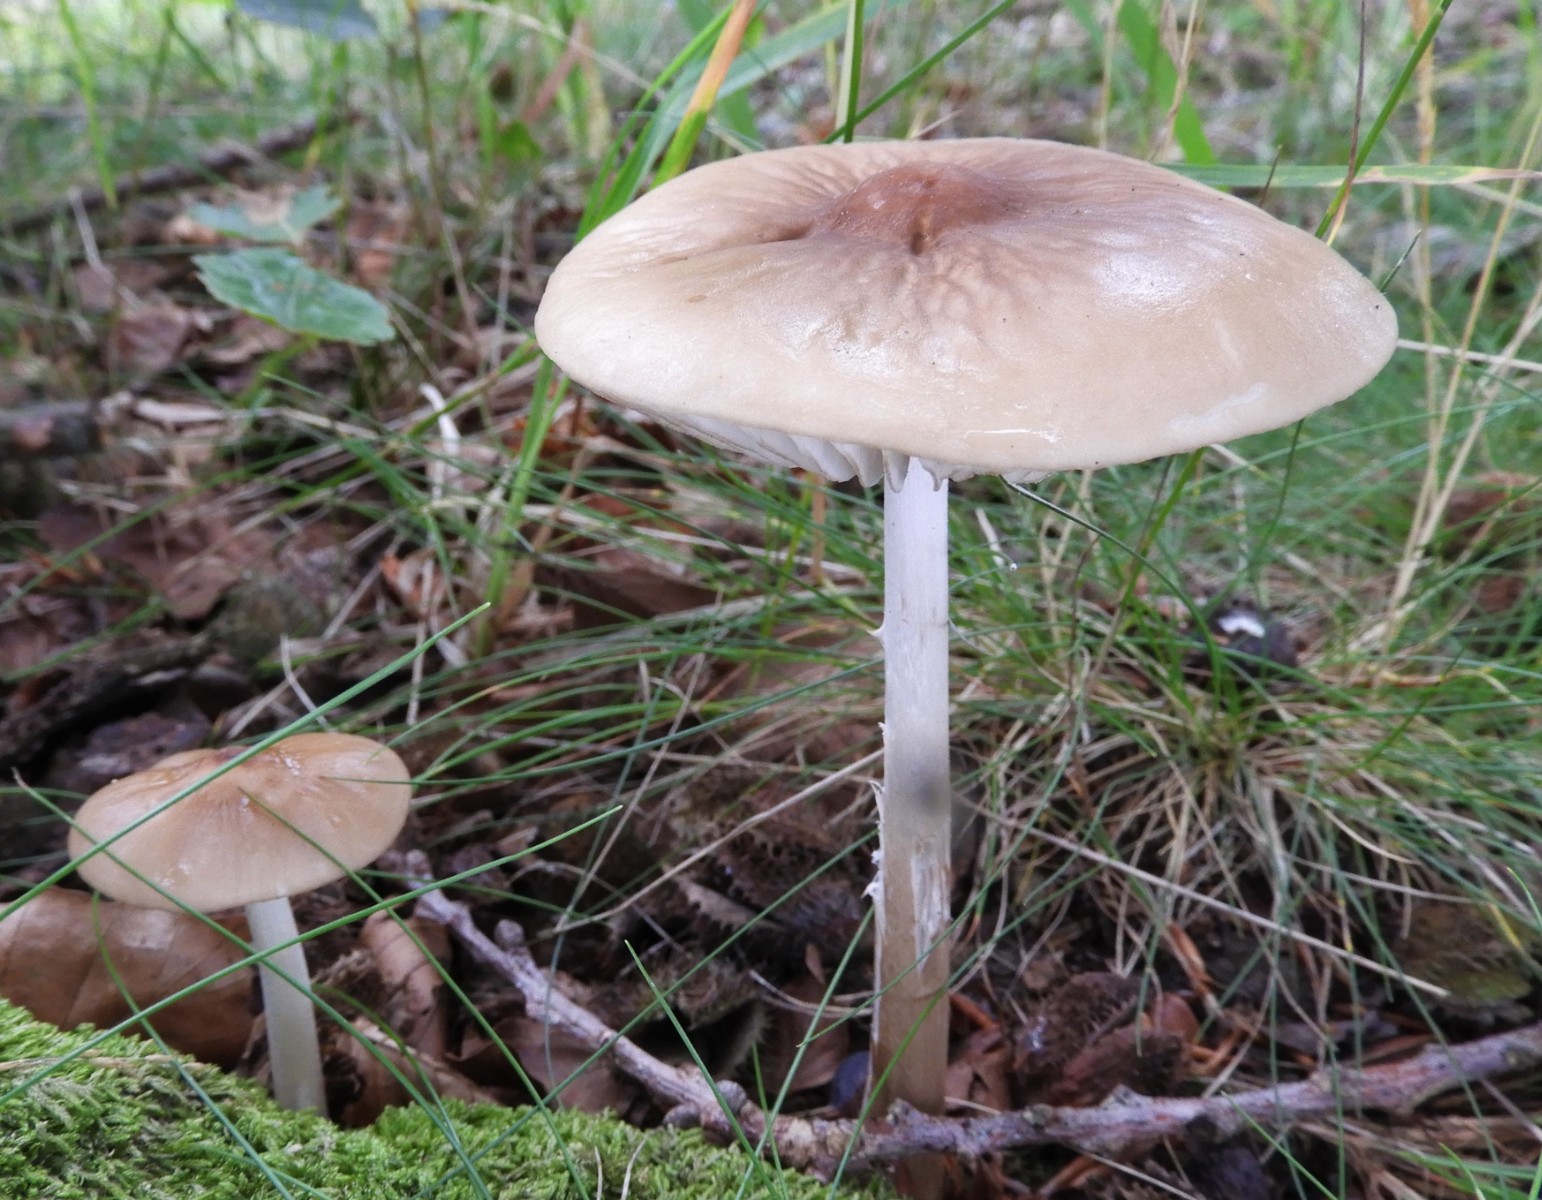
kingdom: Fungi
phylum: Basidiomycota
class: Agaricomycetes
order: Agaricales
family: Physalacriaceae
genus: Hymenopellis
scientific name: Hymenopellis radicata
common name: almindelig pælerodshat
